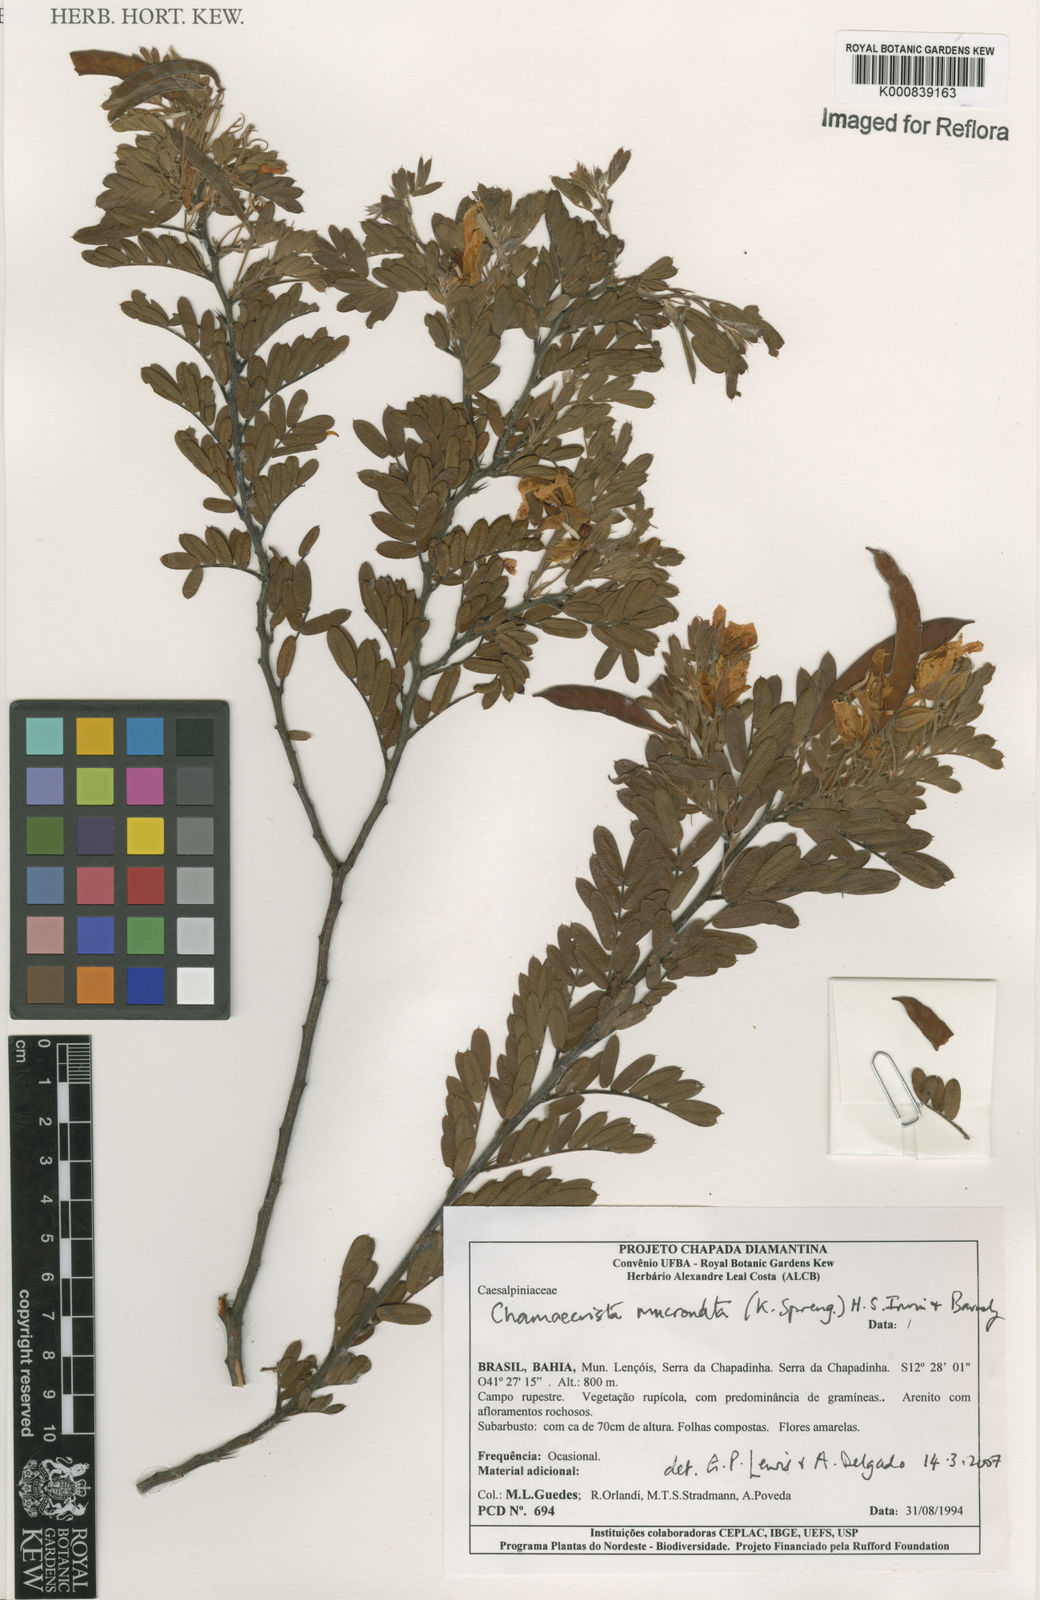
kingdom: Plantae
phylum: Tracheophyta
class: Magnoliopsida
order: Fabales
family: Fabaceae
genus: Chamaecrista
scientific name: Chamaecrista mucronata
